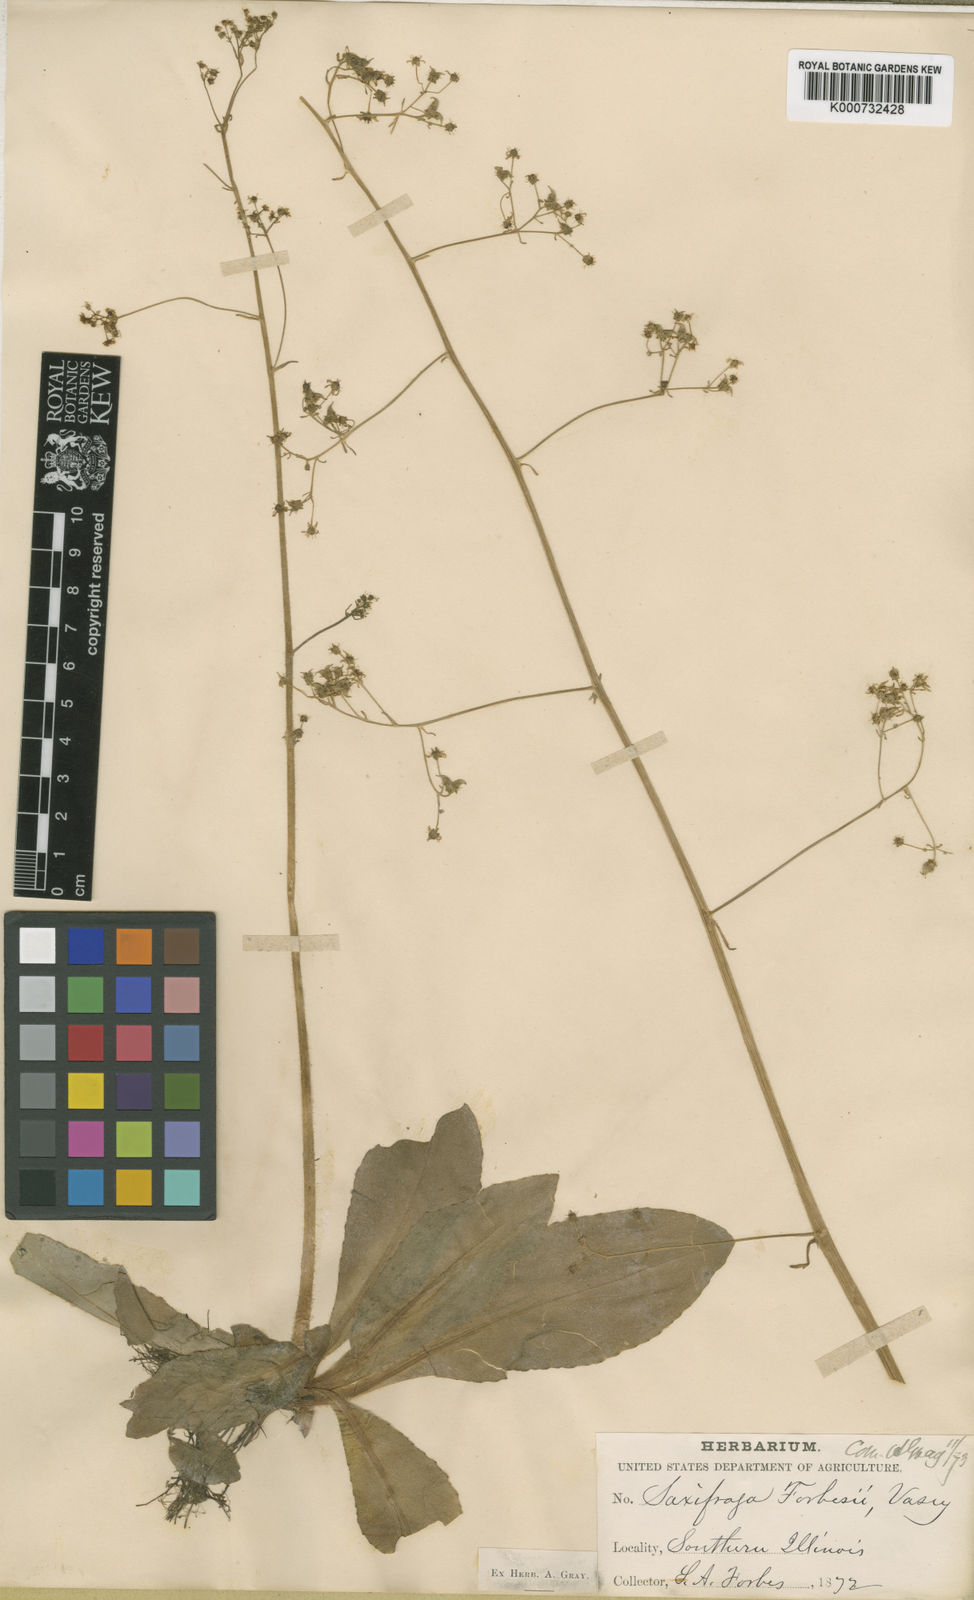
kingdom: Plantae
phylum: Tracheophyta
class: Magnoliopsida
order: Saxifragales
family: Saxifragaceae
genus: Micranthes
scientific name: Micranthes pensylvanica
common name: Marsh saxifrage
